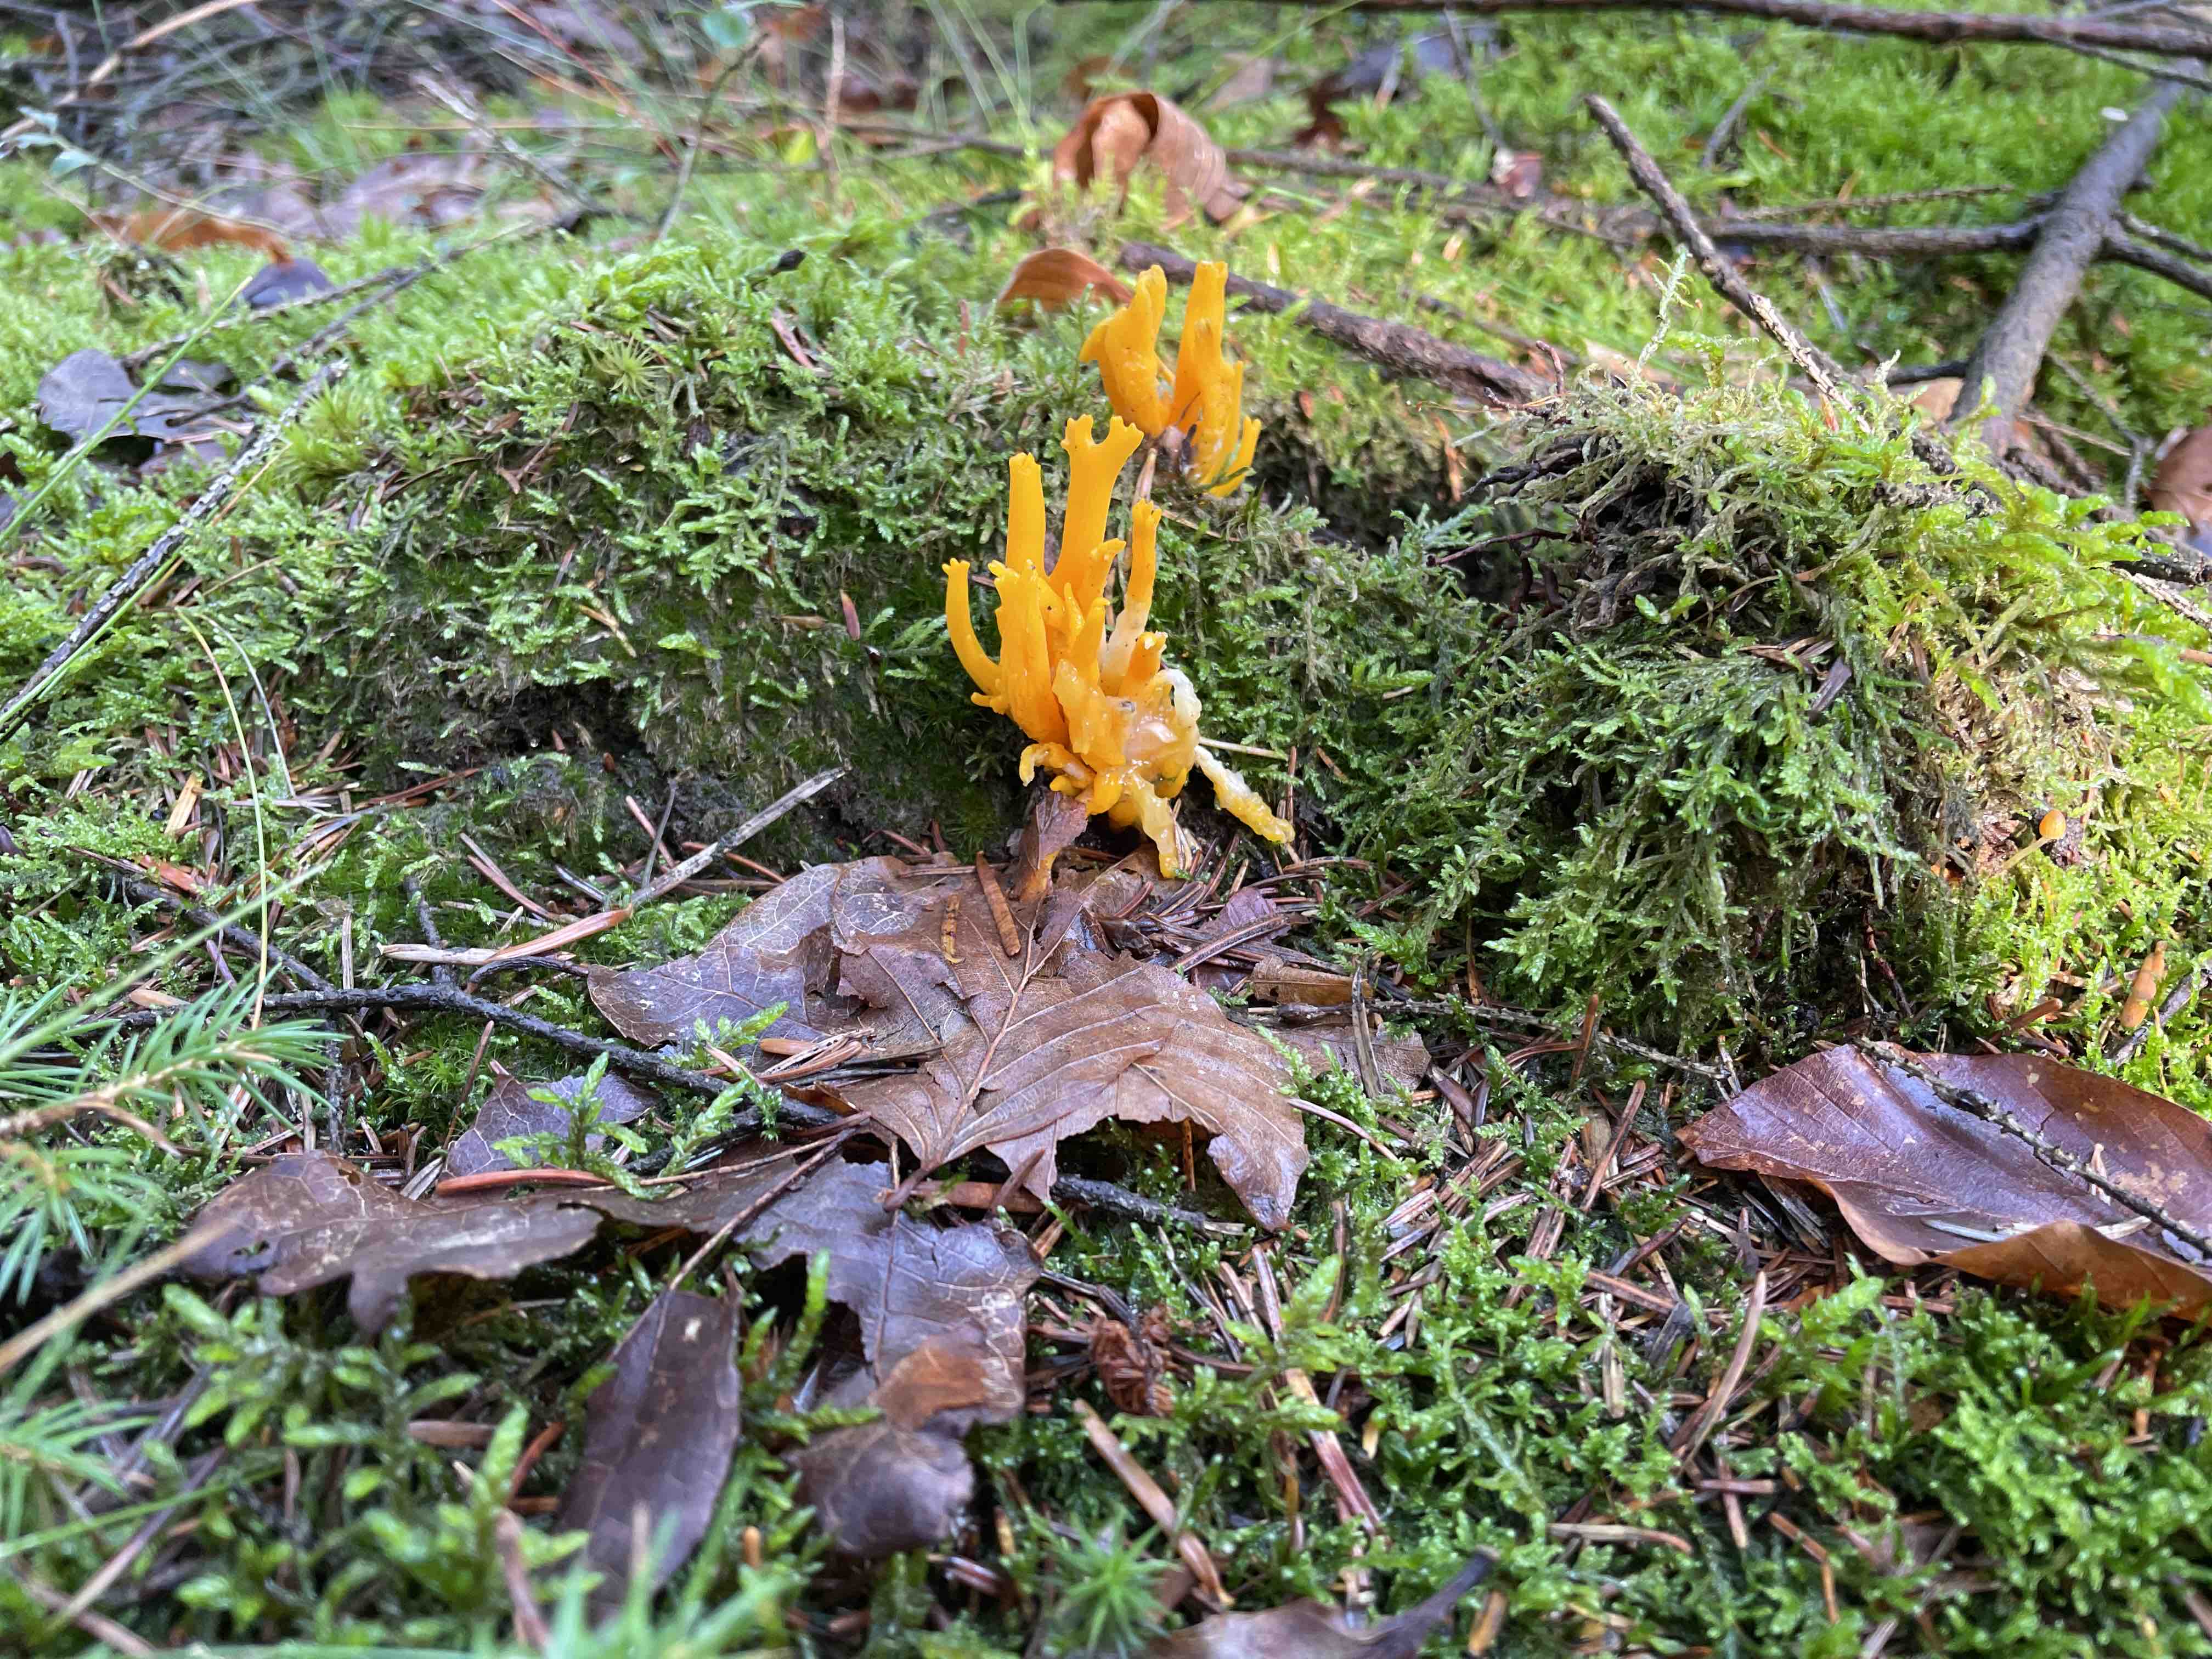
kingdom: Fungi
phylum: Basidiomycota
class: Dacrymycetes
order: Dacrymycetales
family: Dacrymycetaceae
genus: Calocera
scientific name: Calocera viscosa
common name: almindelig guldgaffel
